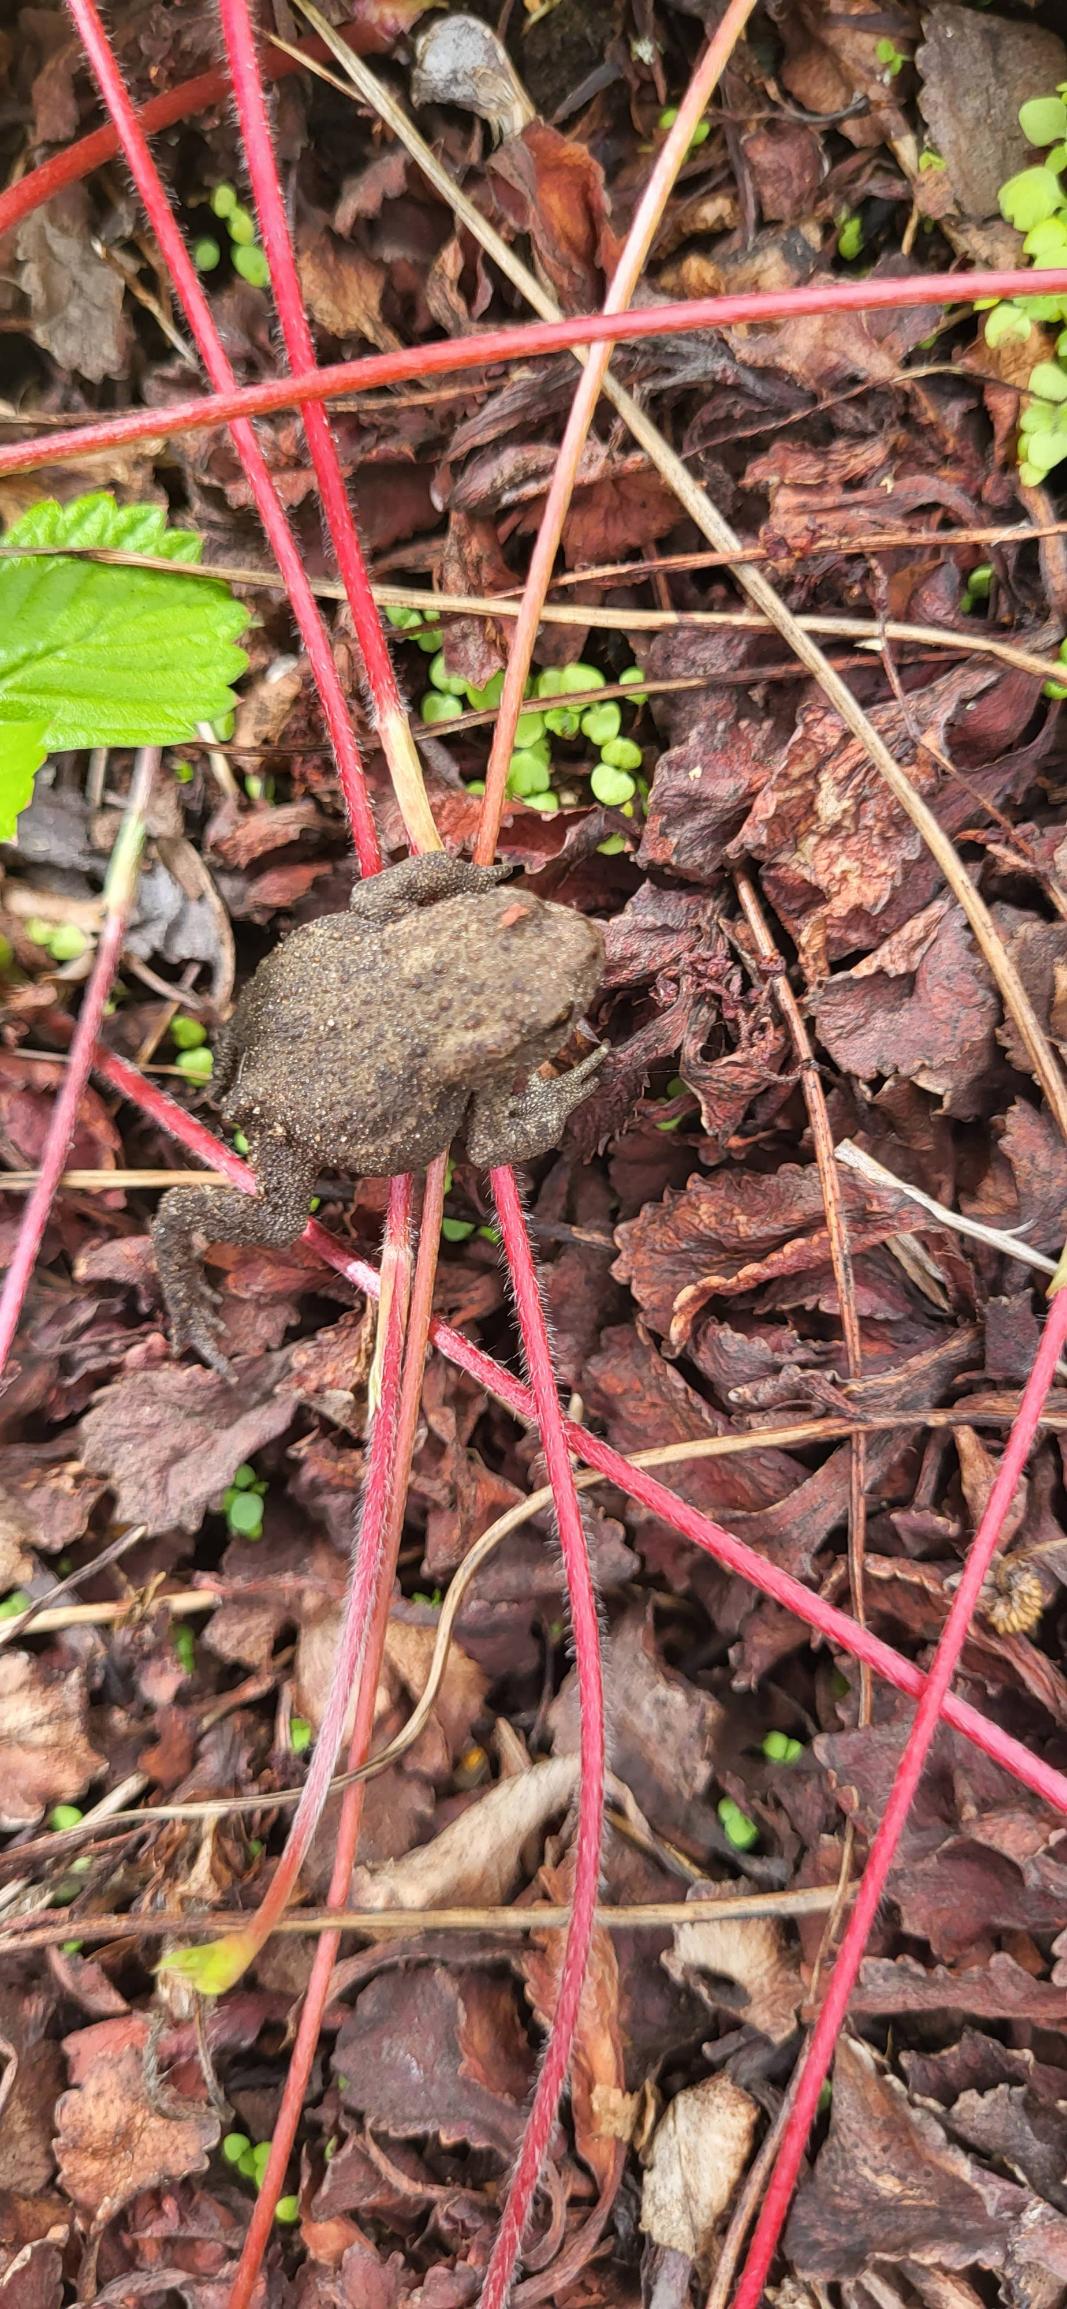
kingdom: Animalia
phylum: Chordata
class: Amphibia
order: Anura
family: Bufonidae
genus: Bufo
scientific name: Bufo bufo
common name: Skrubtudse
